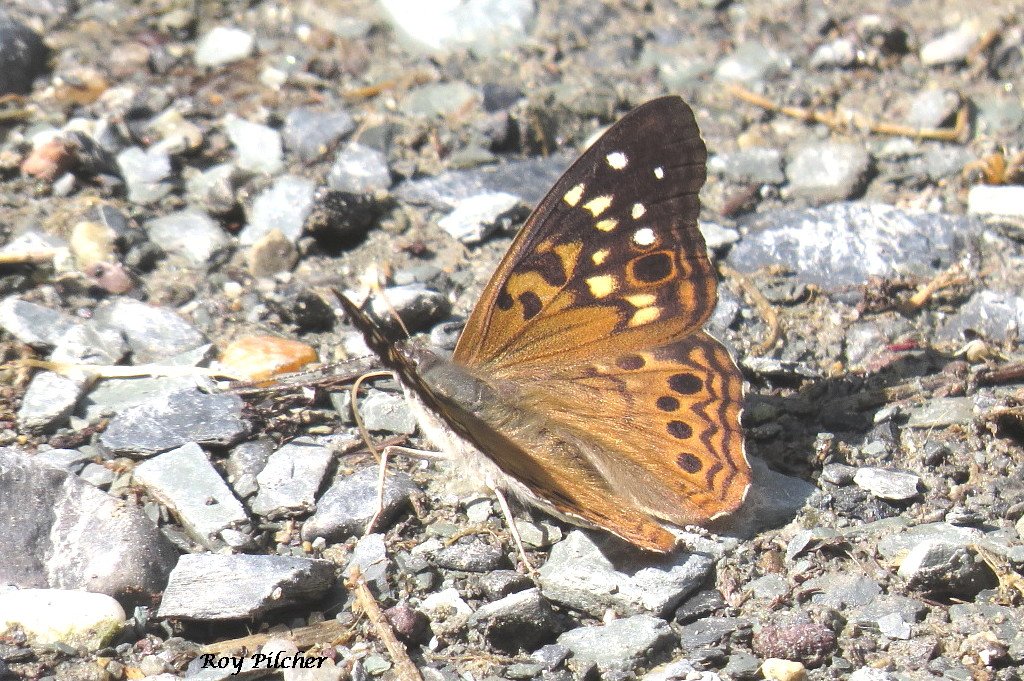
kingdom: Animalia
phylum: Arthropoda
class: Insecta
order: Lepidoptera
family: Nymphalidae
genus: Asterocampa
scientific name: Asterocampa celtis
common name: Hackberry Emperor
